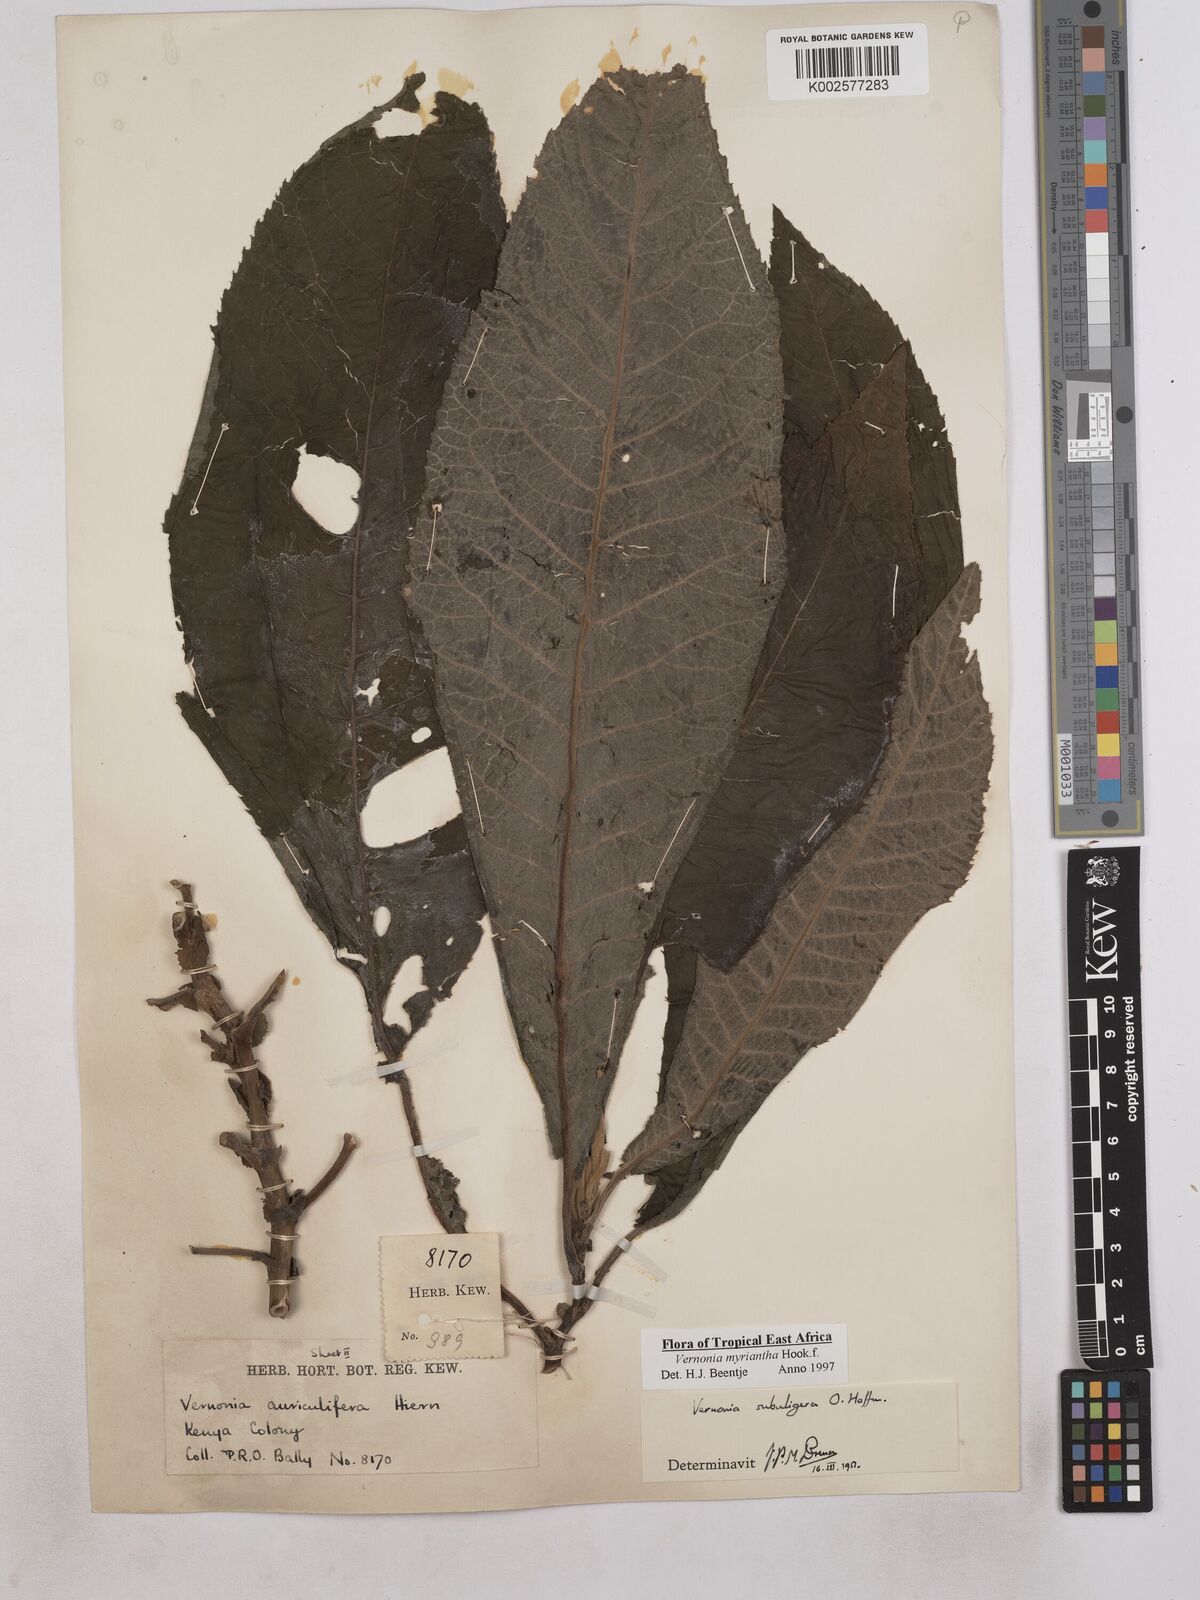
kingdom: Plantae
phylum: Tracheophyta
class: Magnoliopsida
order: Asterales
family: Asteraceae
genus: Gymnanthemum
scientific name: Gymnanthemum myrianthum
